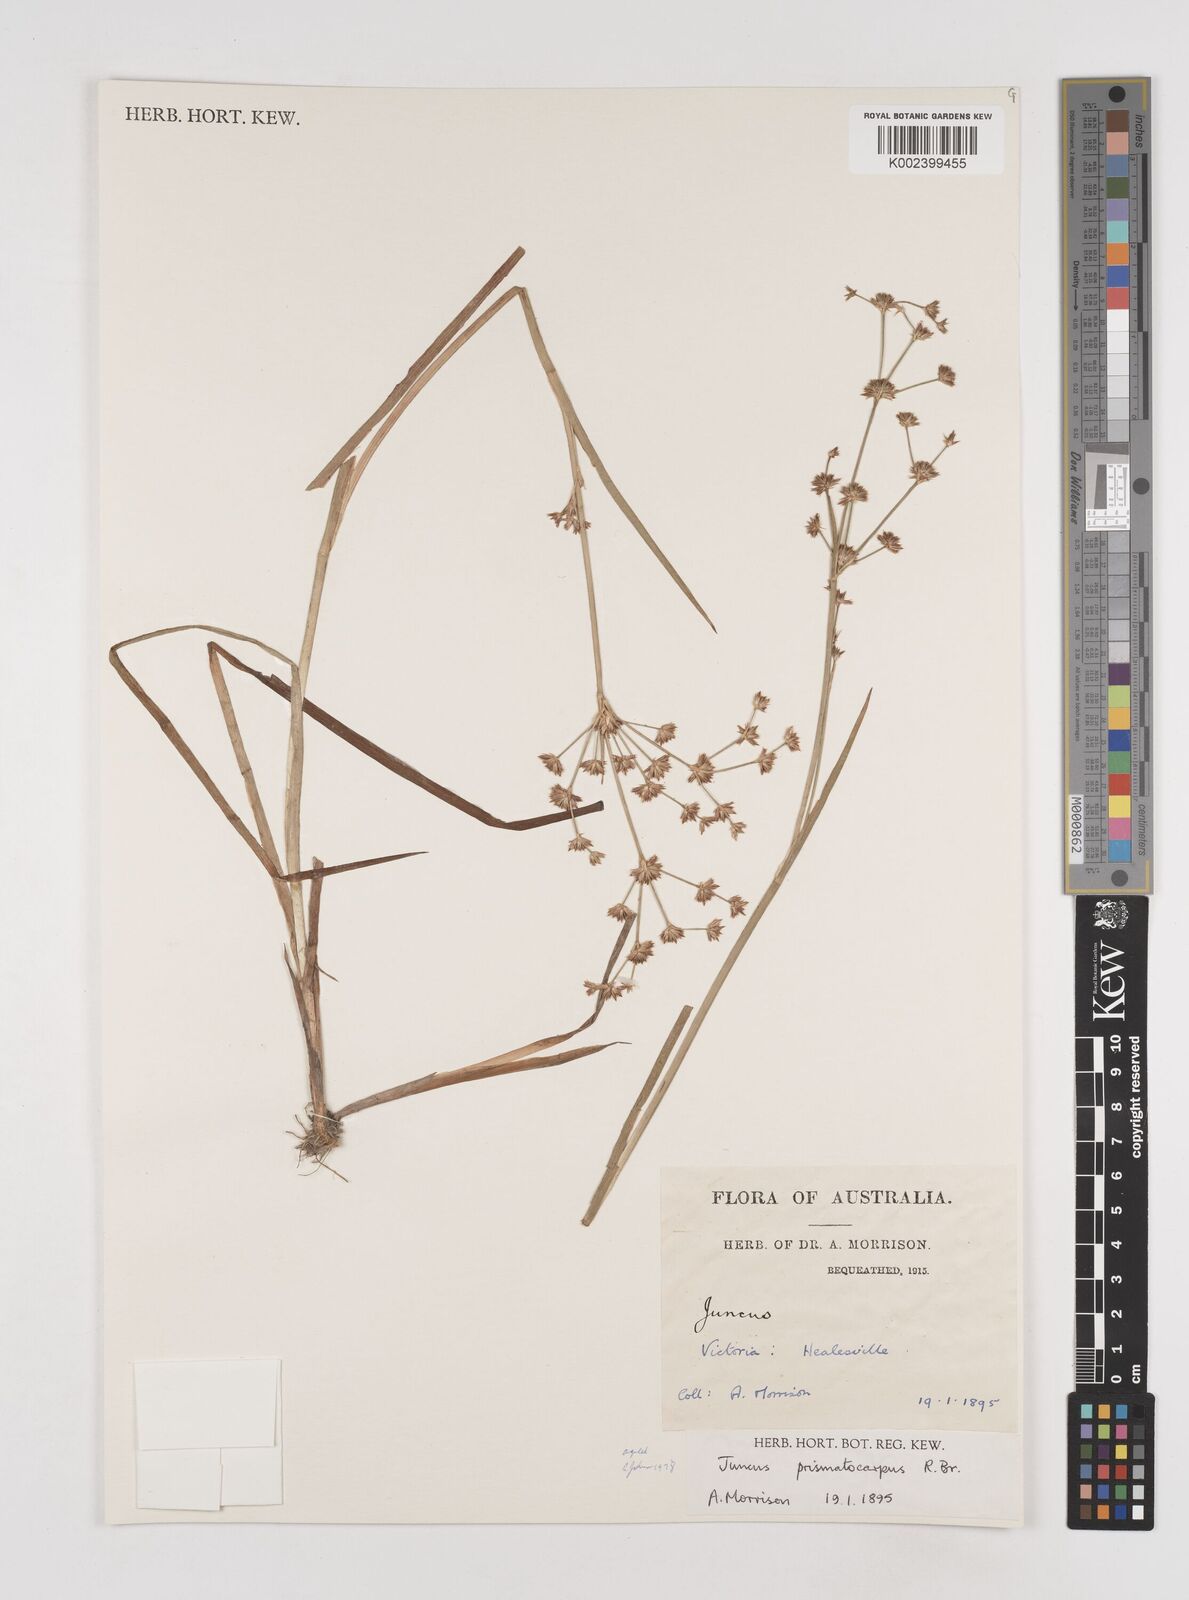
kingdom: Plantae
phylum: Tracheophyta
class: Liliopsida
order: Poales
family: Juncaceae
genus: Juncus
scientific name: Juncus prismatocarpus
